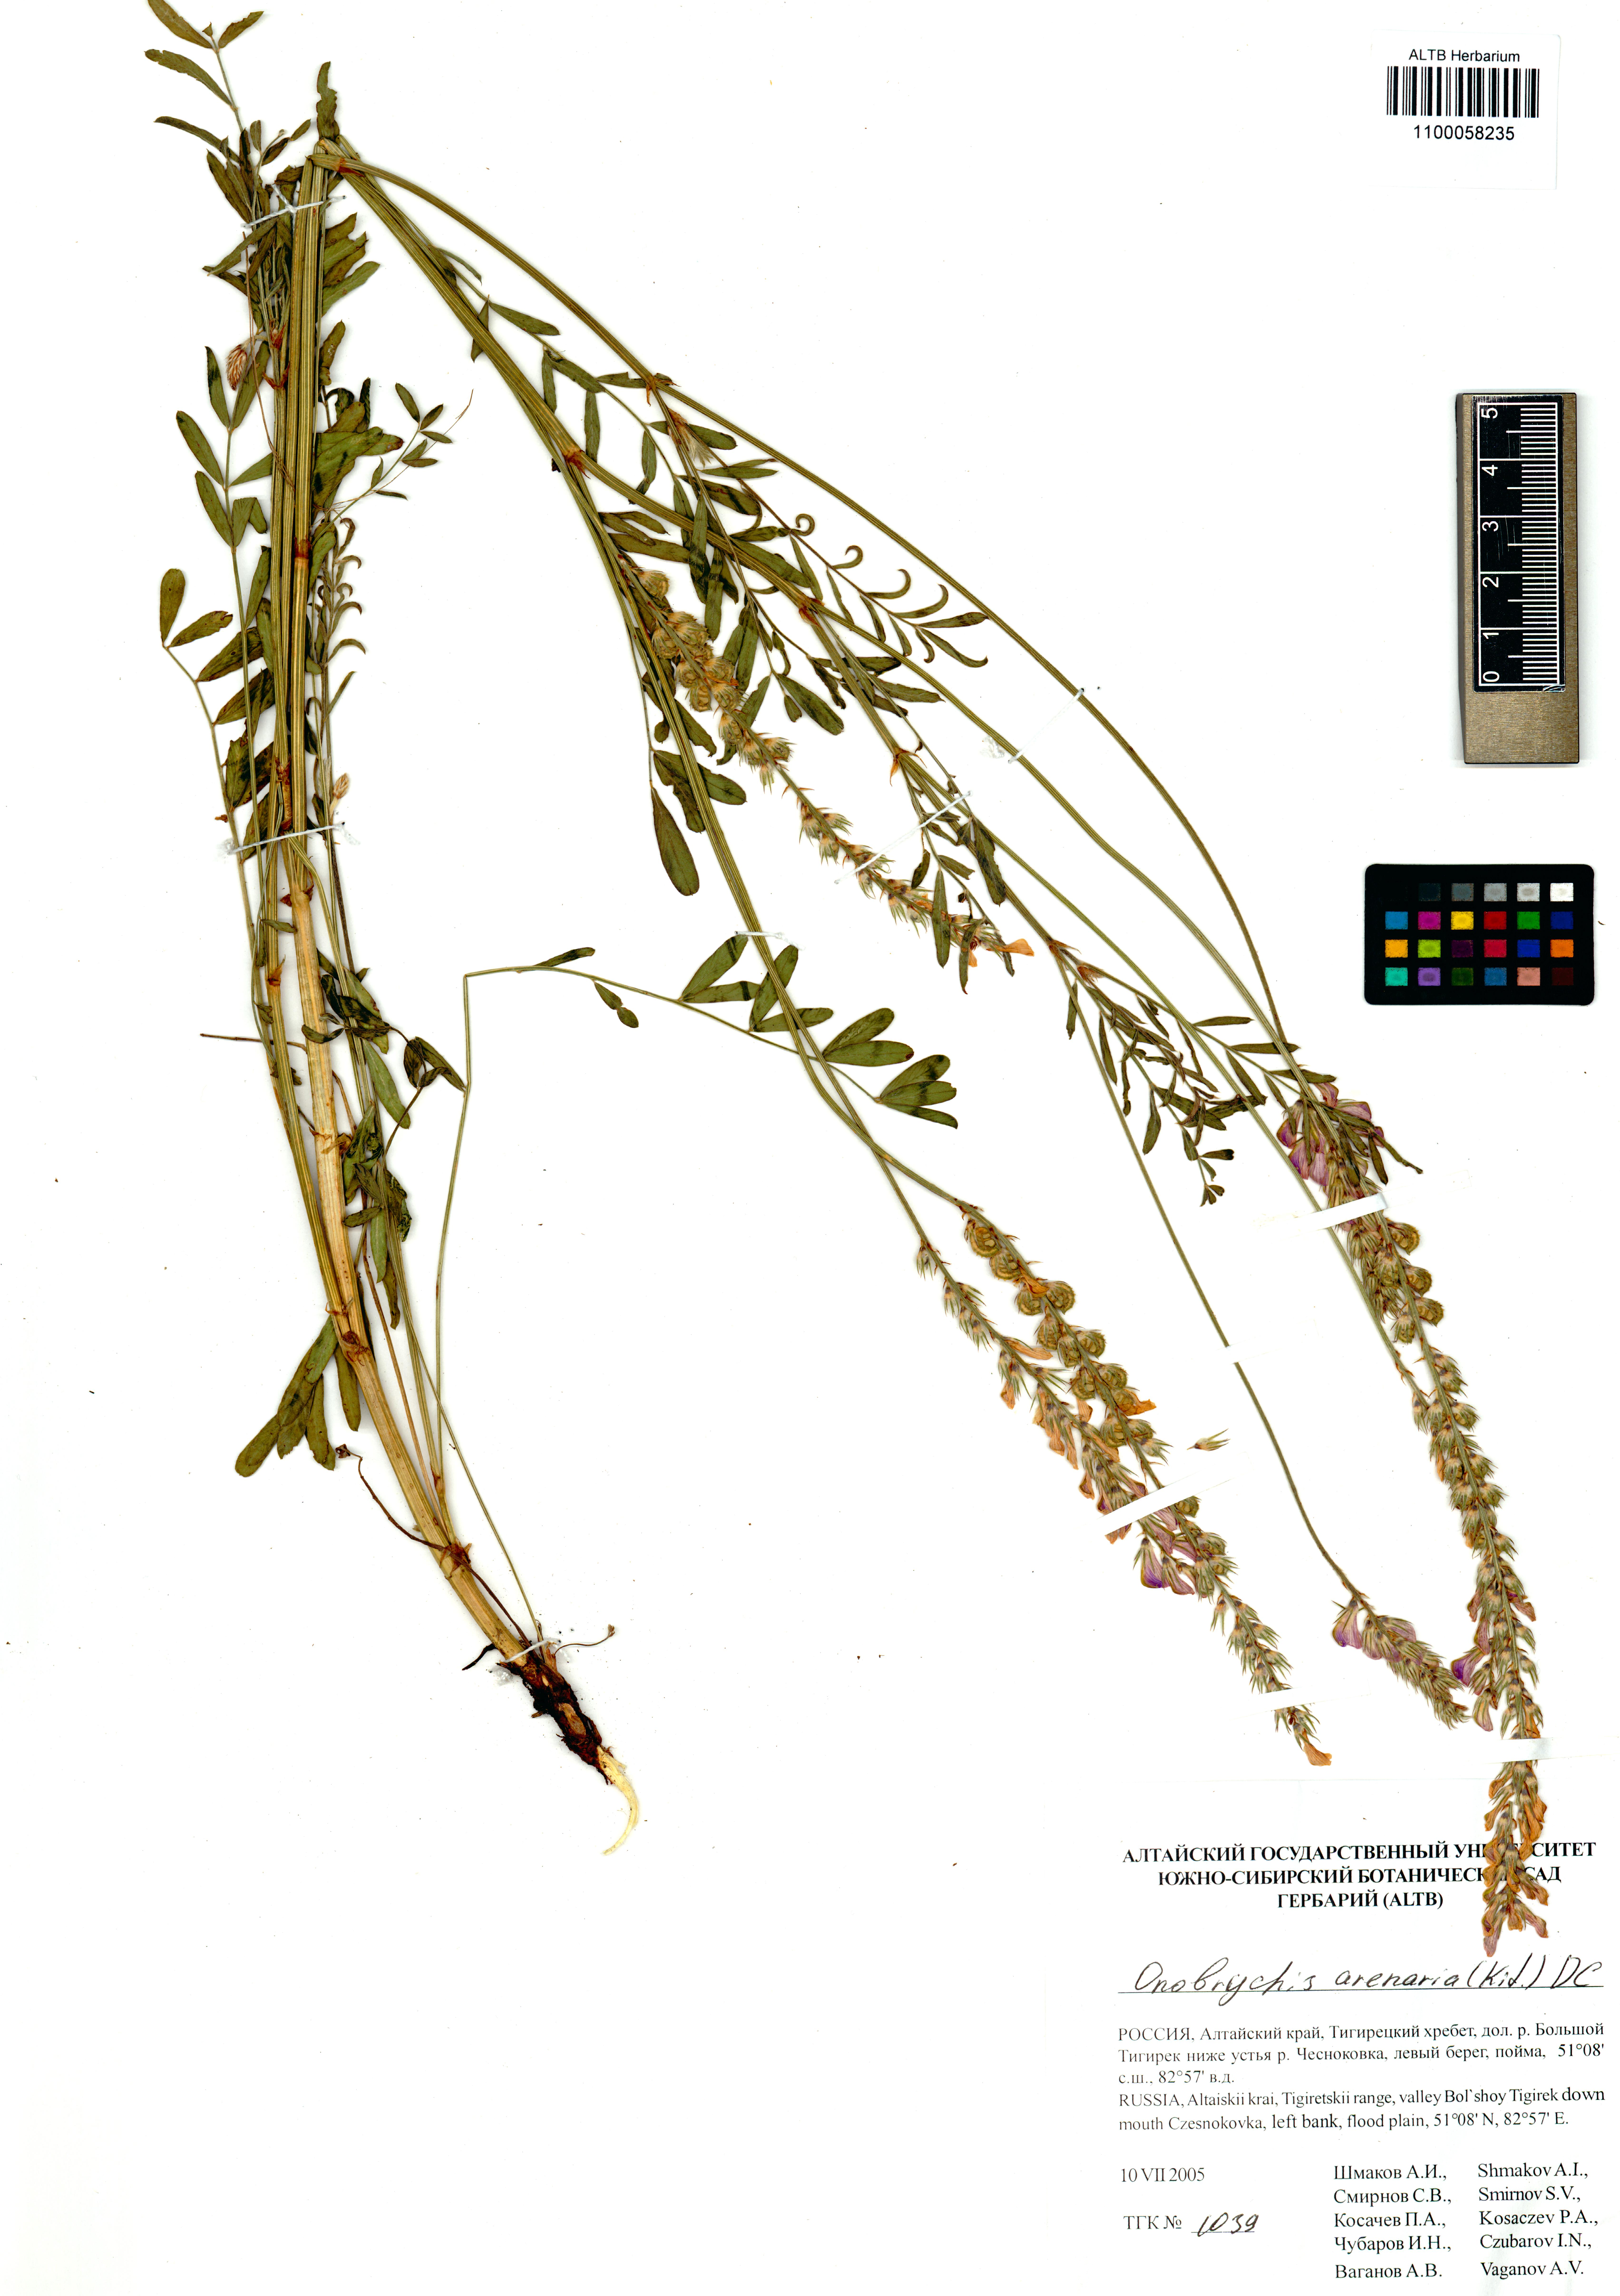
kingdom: Plantae
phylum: Tracheophyta
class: Magnoliopsida
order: Fabales
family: Fabaceae
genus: Onobrychis
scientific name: Onobrychis arenaria
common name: Sand esparcet
